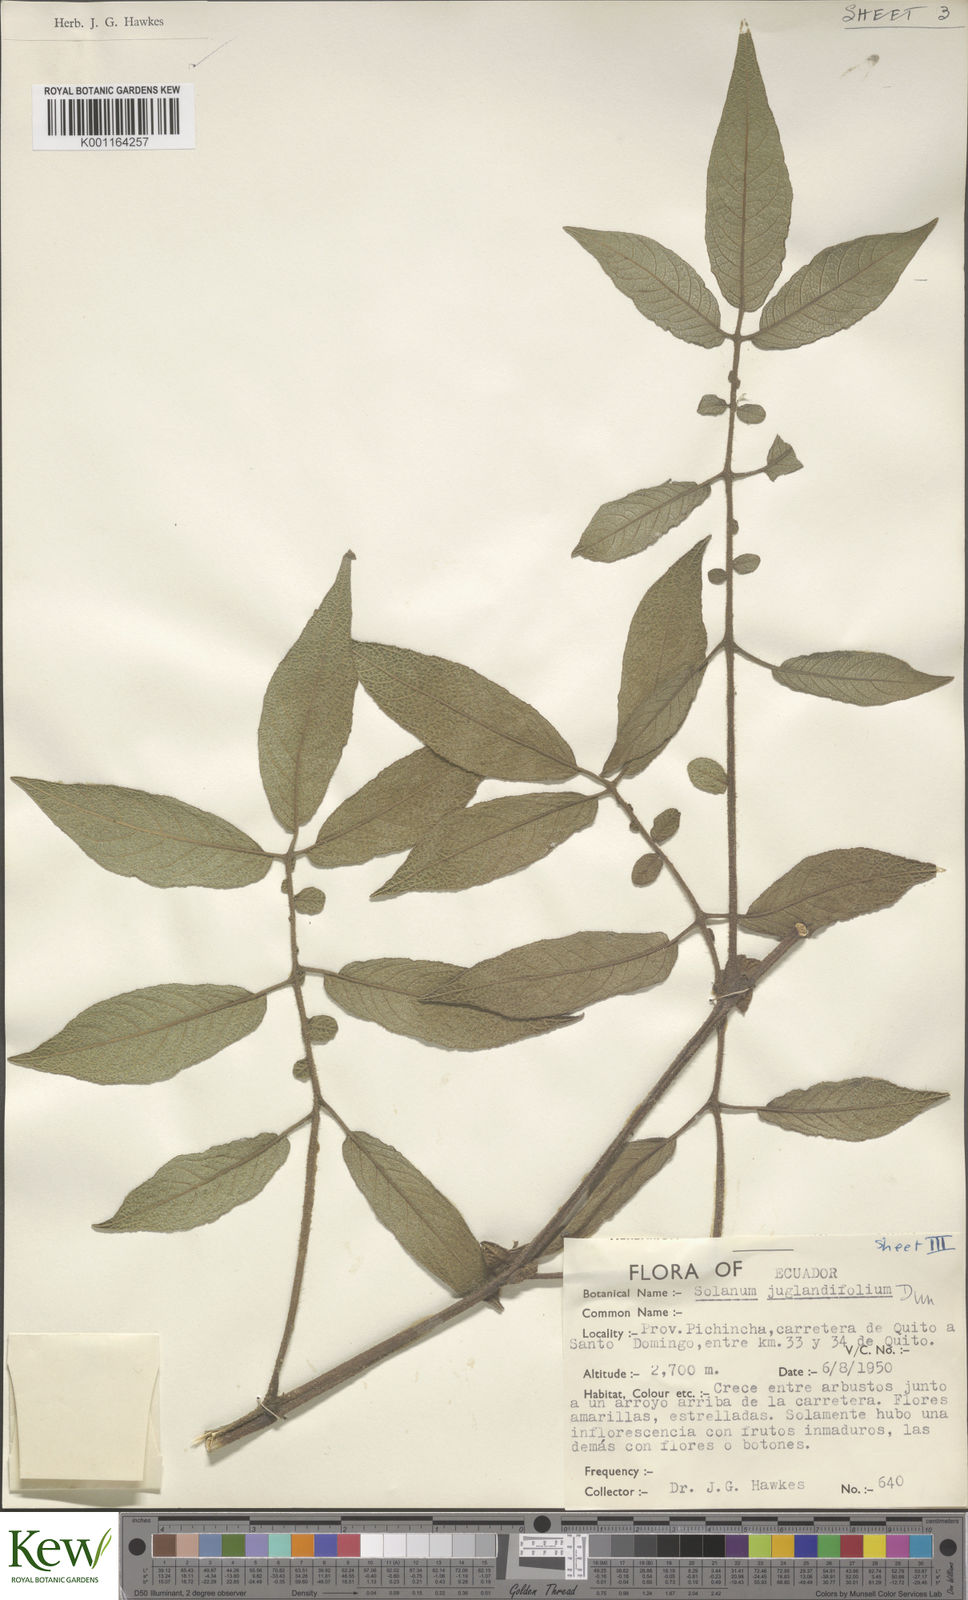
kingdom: Plantae
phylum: Tracheophyta
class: Magnoliopsida
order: Solanales
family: Solanaceae
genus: Solanum
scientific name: Solanum juglandifolium
